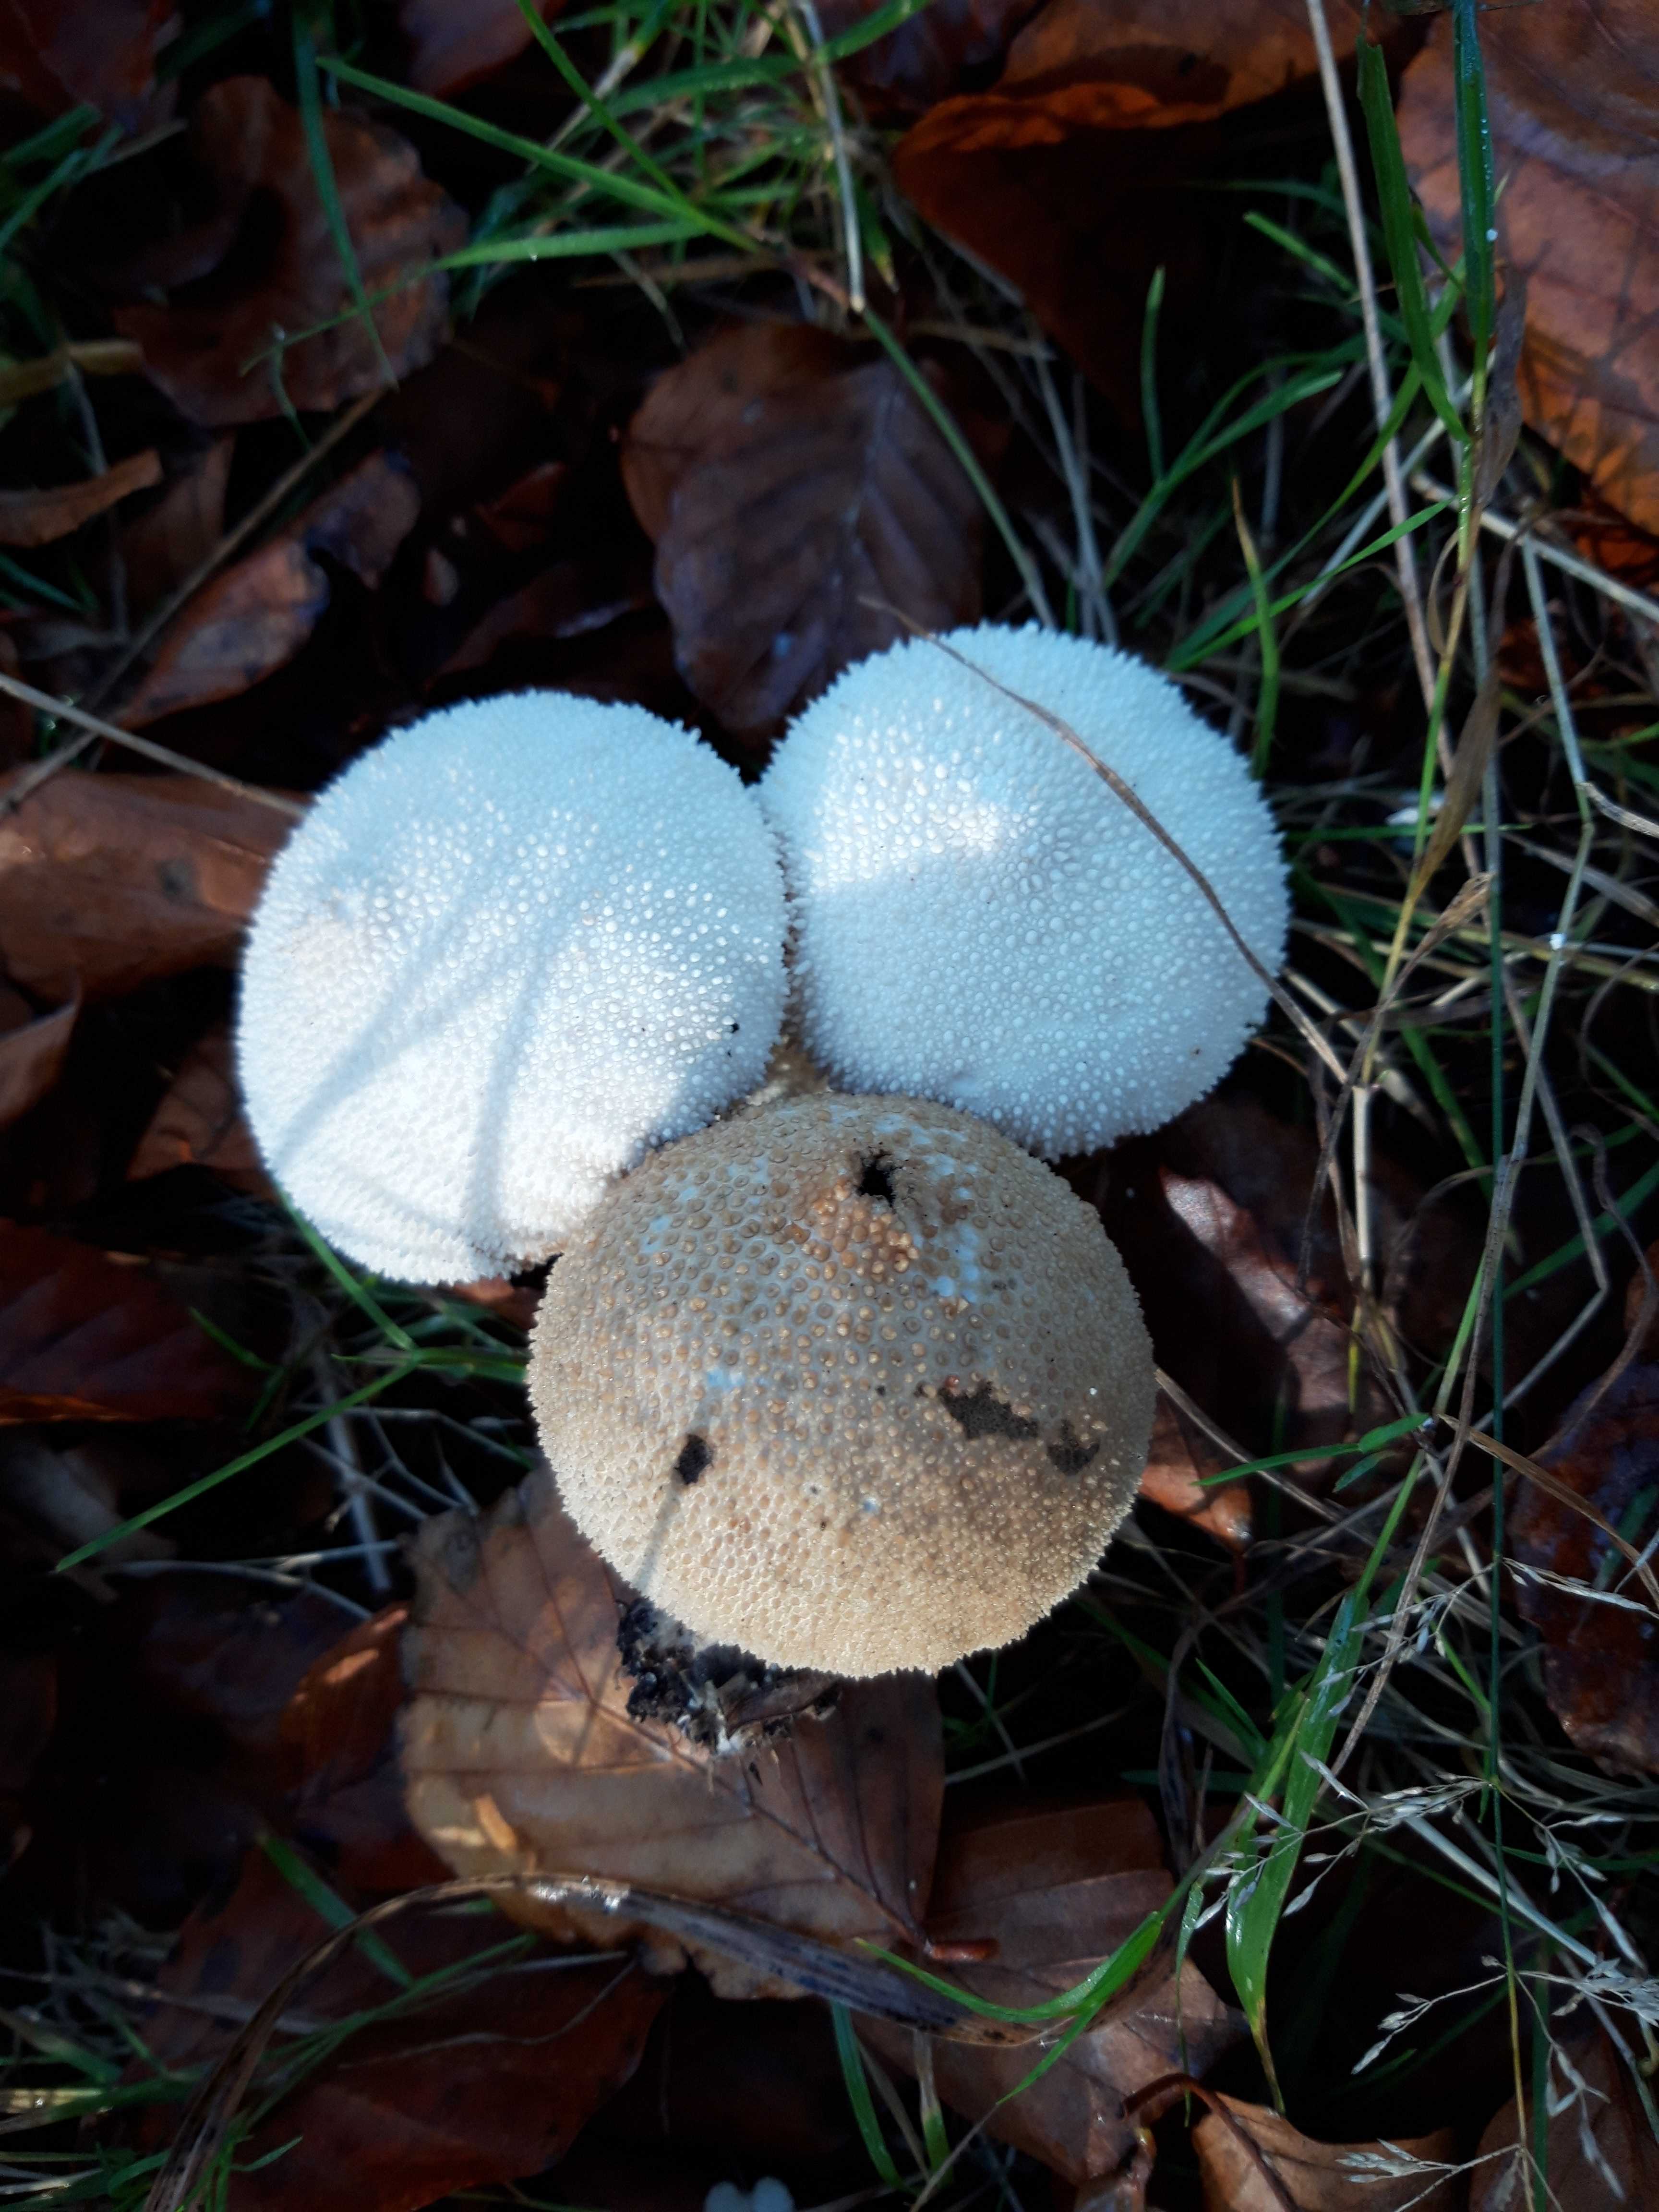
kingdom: Fungi
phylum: Basidiomycota
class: Agaricomycetes
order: Agaricales
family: Lycoperdaceae
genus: Lycoperdon
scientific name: Lycoperdon perlatum
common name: krystal-støvbold
